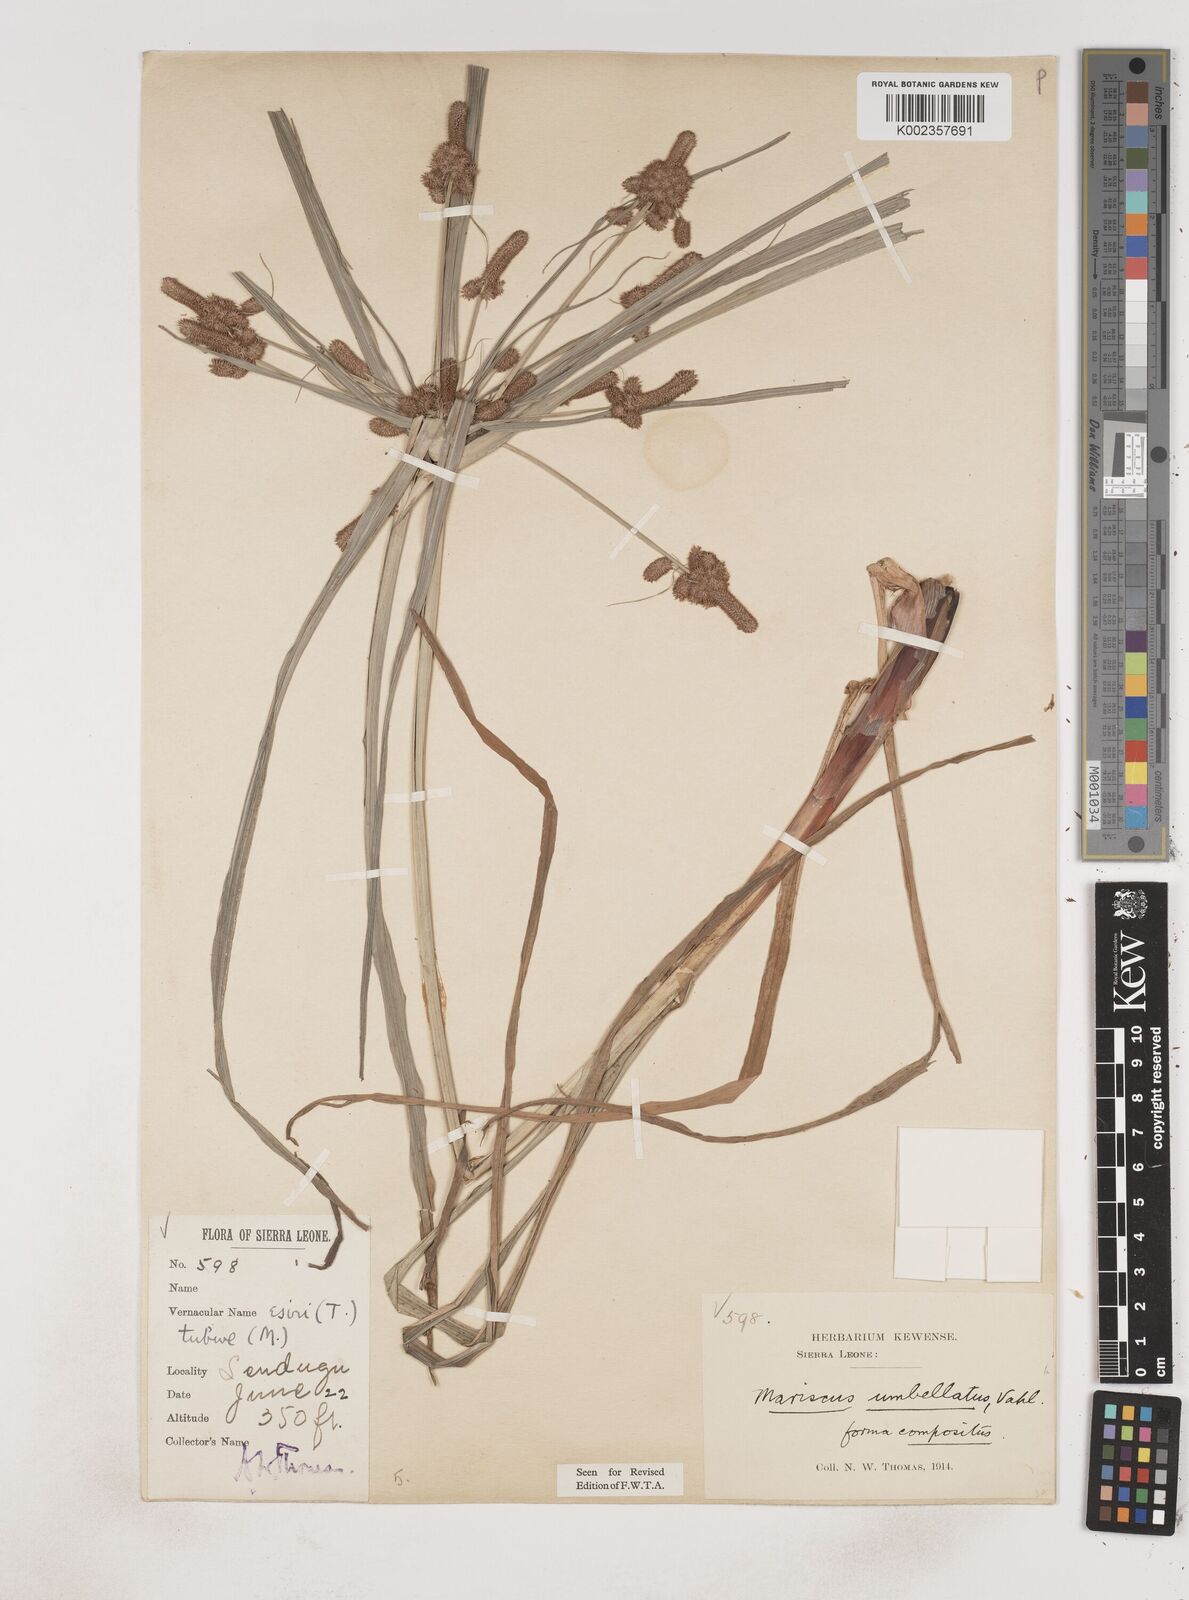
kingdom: Plantae
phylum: Tracheophyta
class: Liliopsida
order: Poales
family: Cyperaceae
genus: Cyperus
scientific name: Cyperus sublimis
